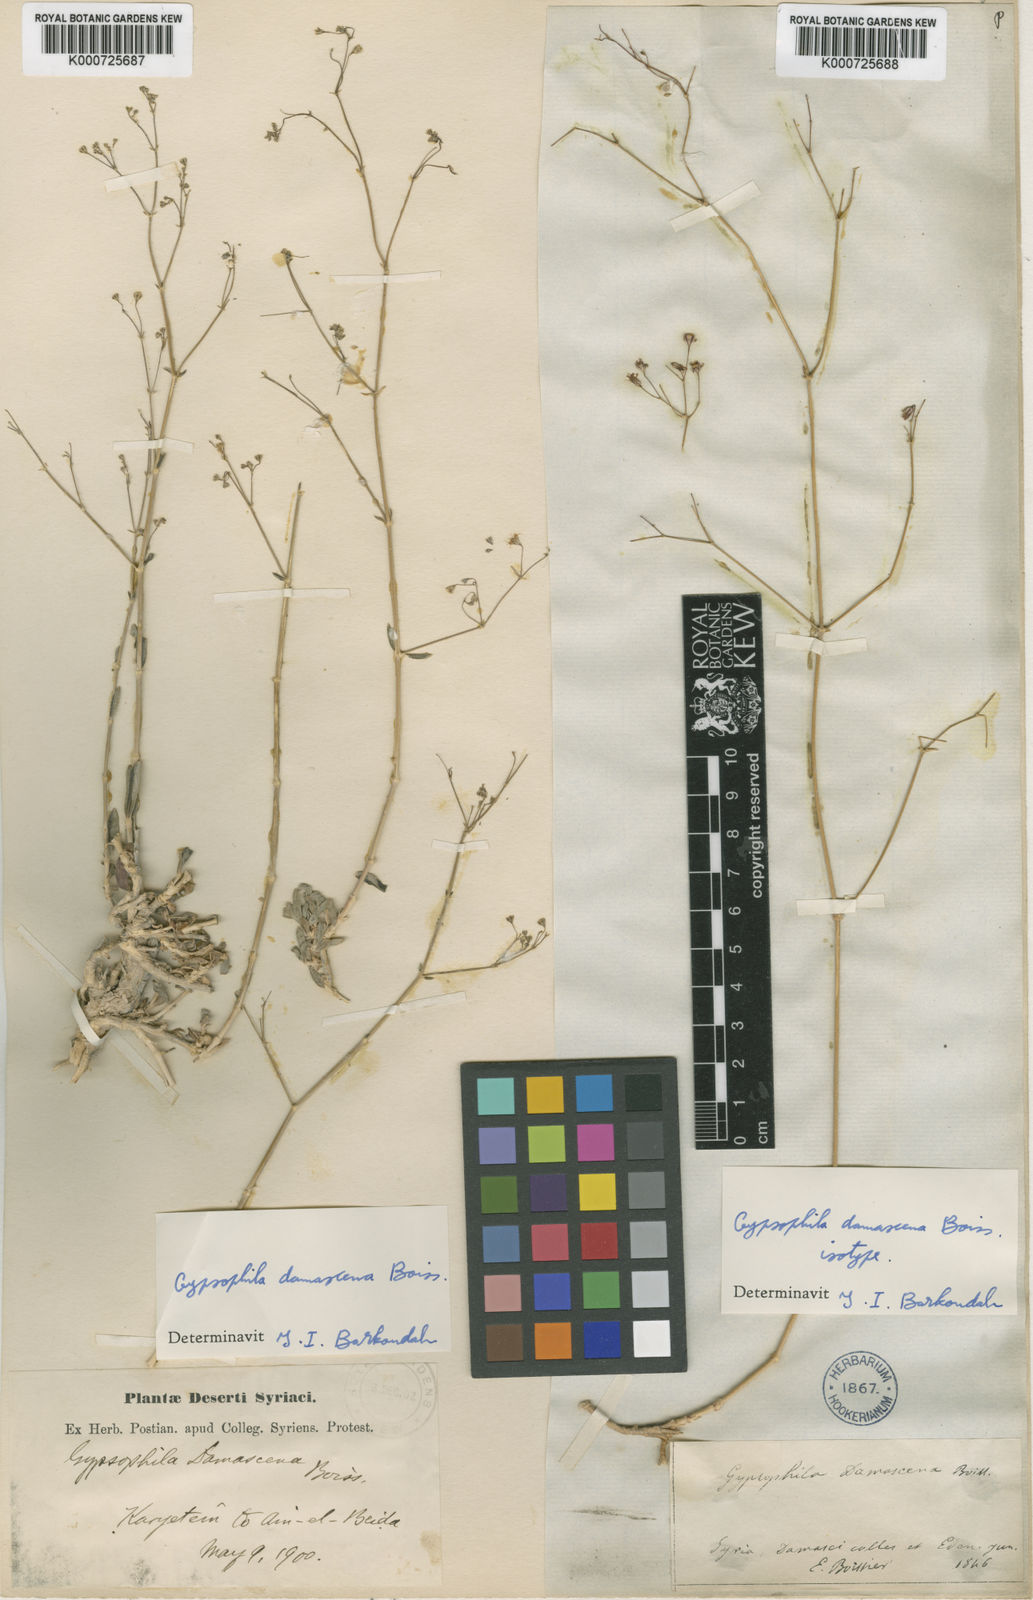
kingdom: Plantae
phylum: Tracheophyta
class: Magnoliopsida
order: Caryophyllales
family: Caryophyllaceae
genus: Gypsophila
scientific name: Gypsophila aucheri
